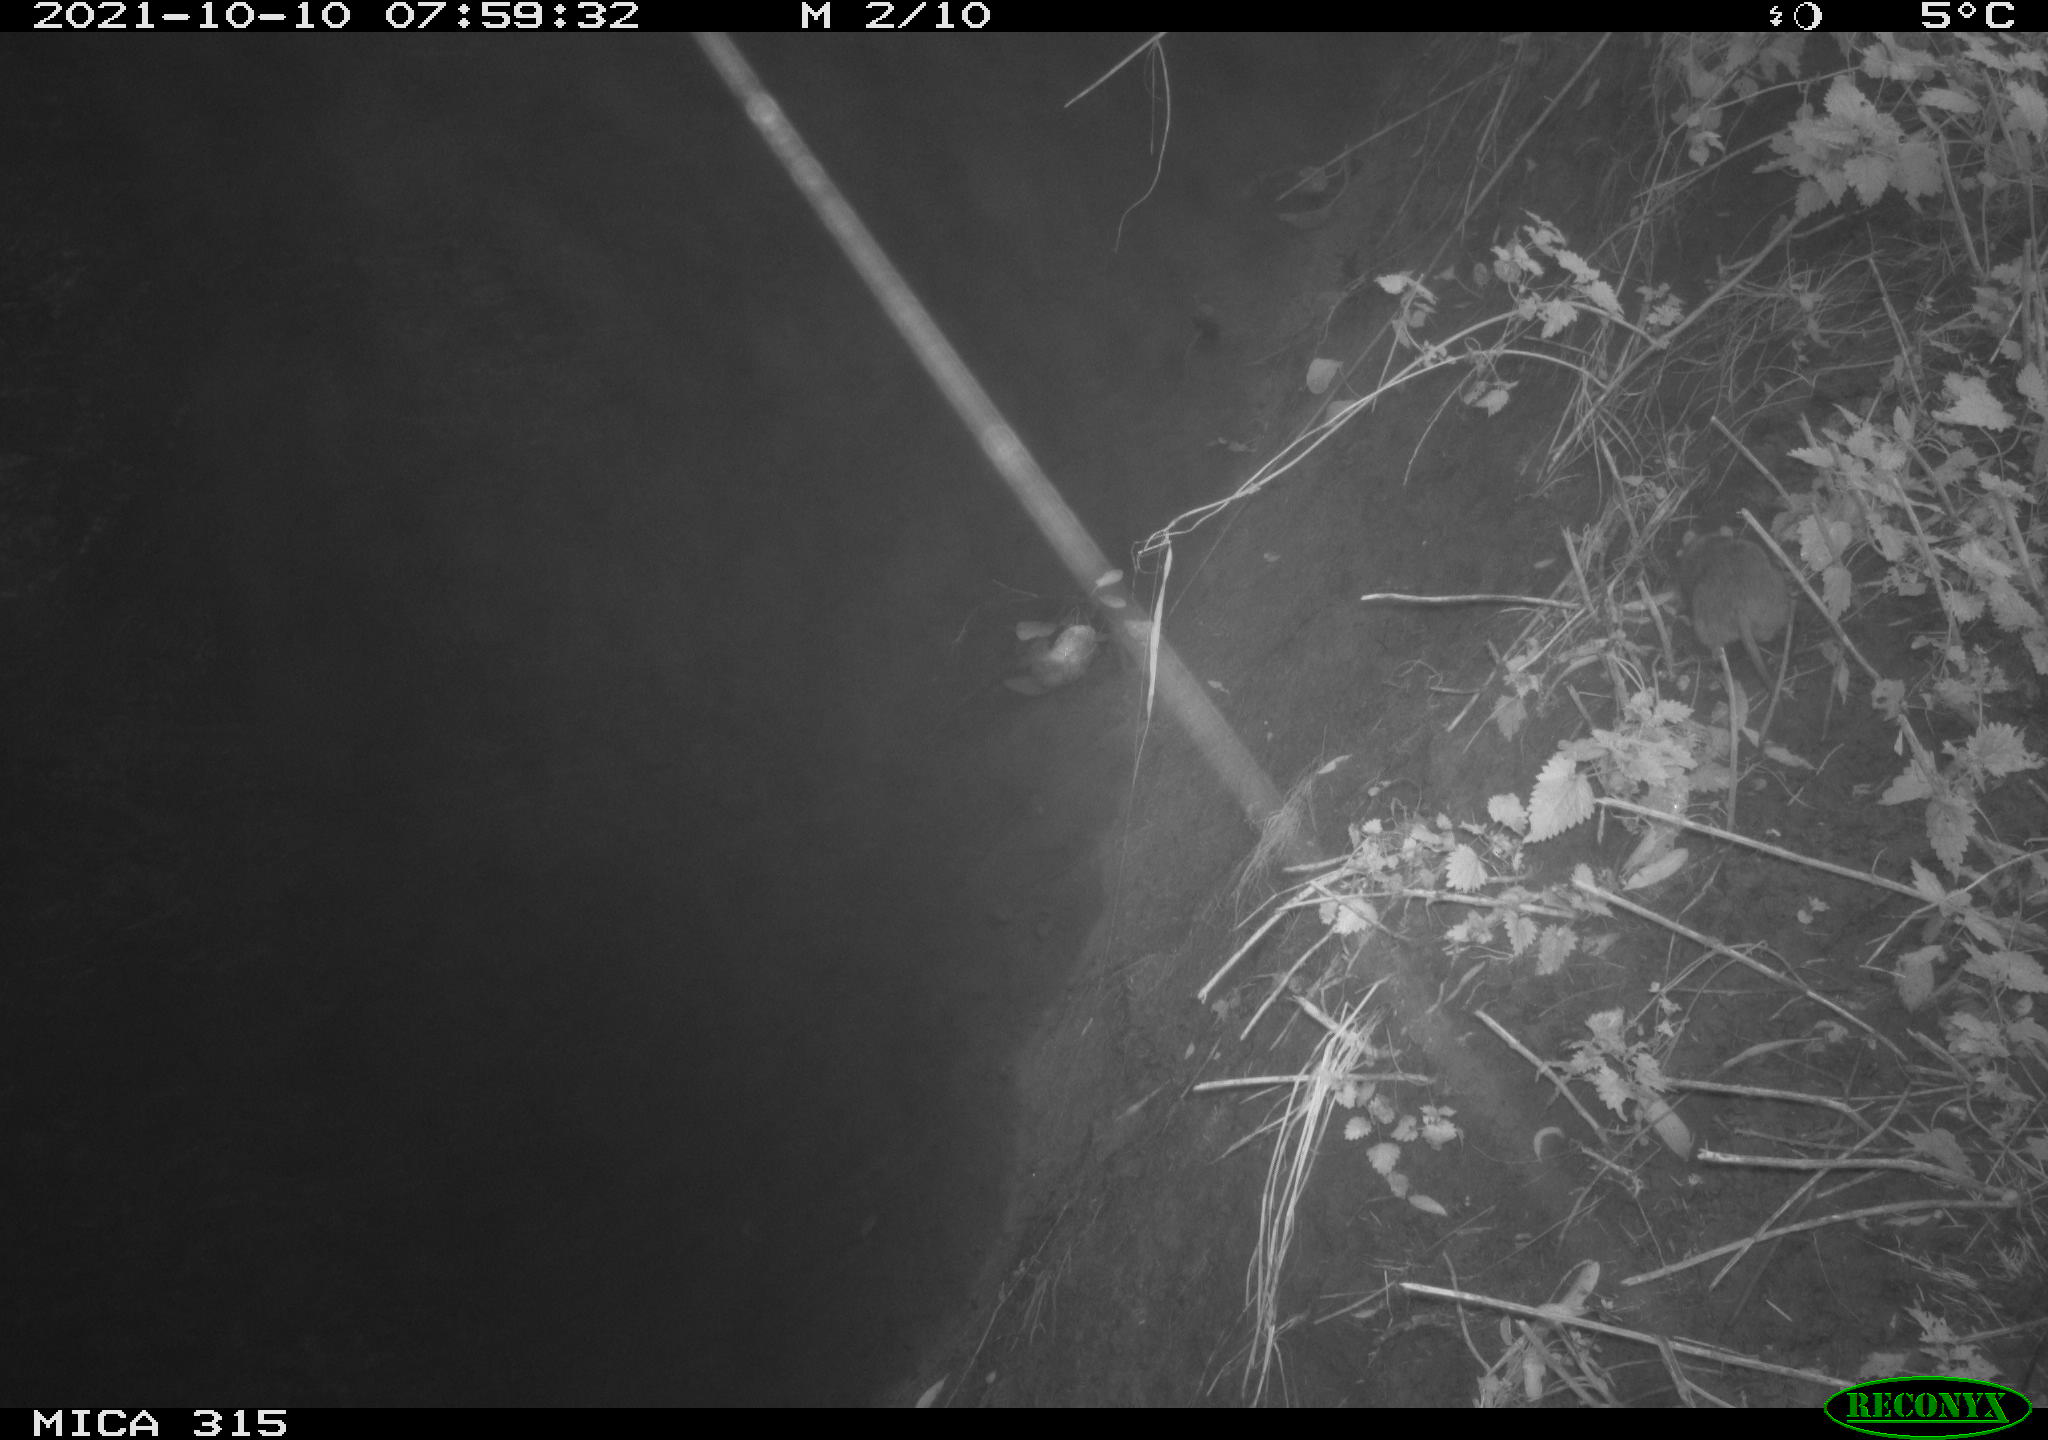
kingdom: Animalia
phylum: Chordata
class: Mammalia
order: Rodentia
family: Muridae
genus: Rattus
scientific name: Rattus norvegicus
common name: Brown rat
